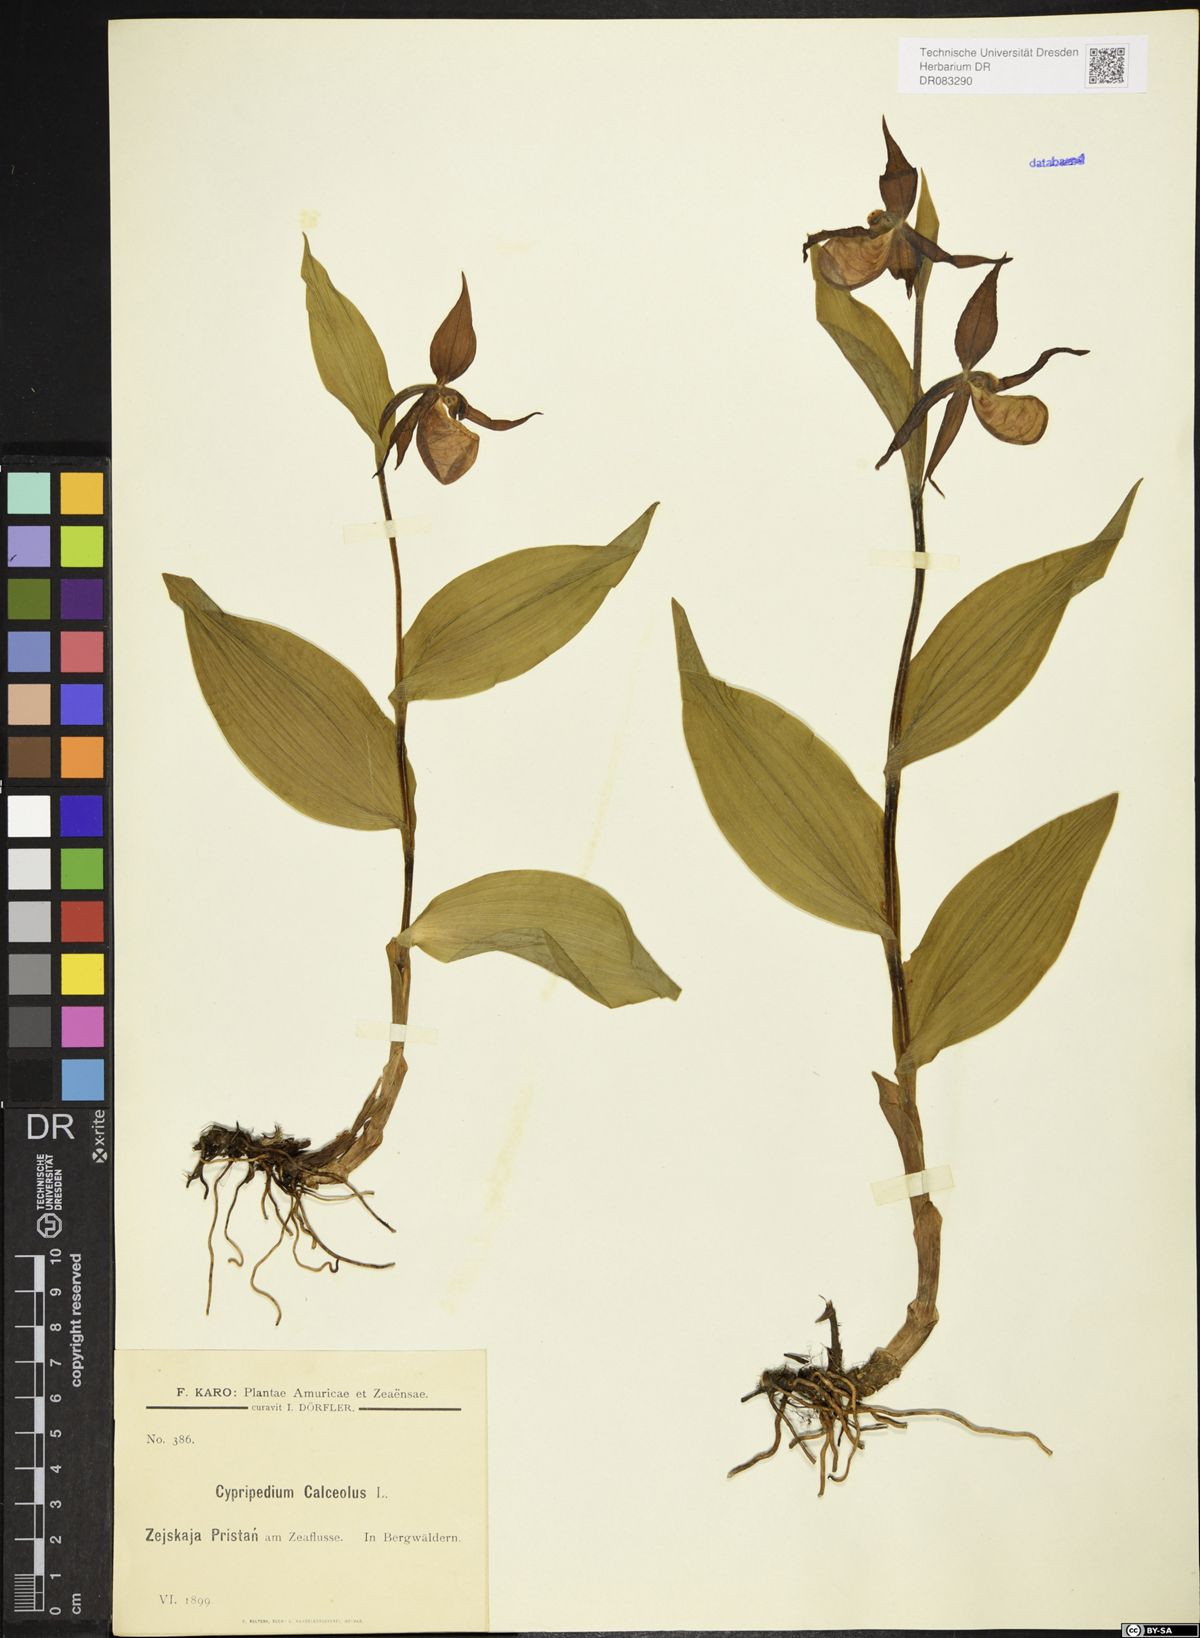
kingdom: Plantae
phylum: Tracheophyta
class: Liliopsida
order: Asparagales
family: Orchidaceae
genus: Cypripedium
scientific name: Cypripedium calceolus
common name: Lady's-slipper
